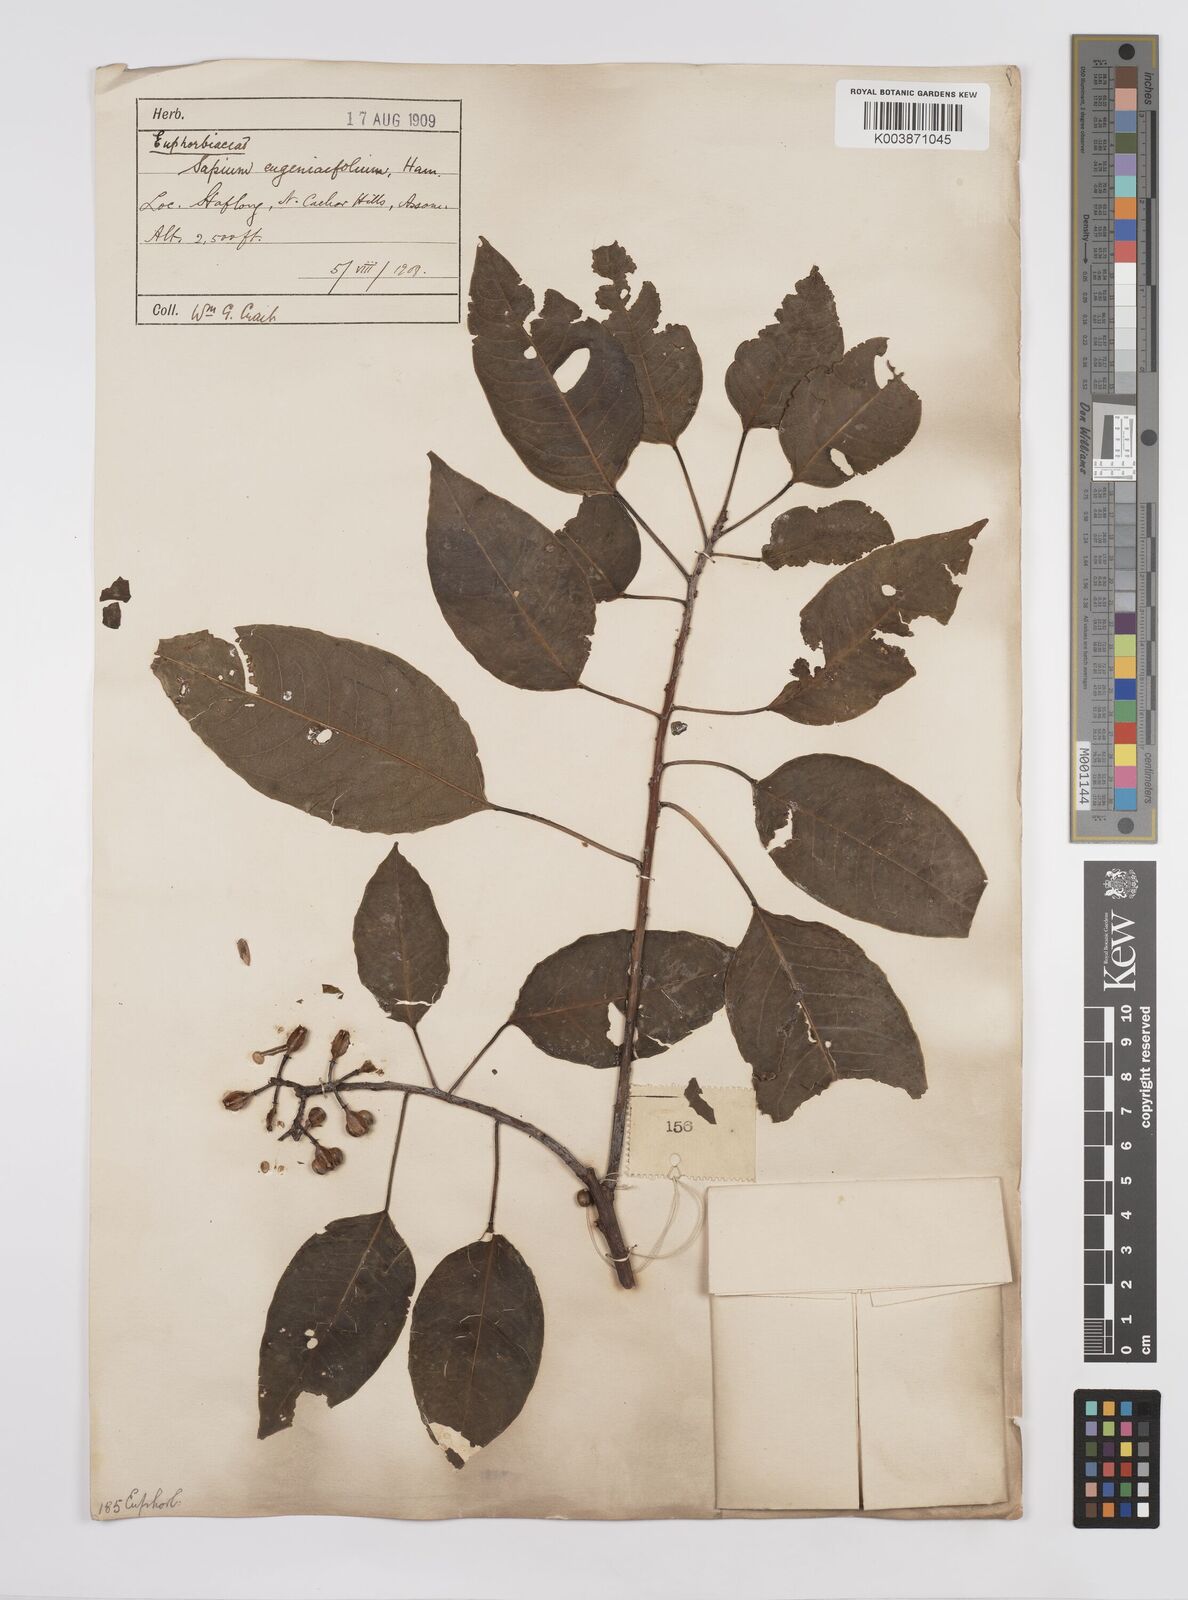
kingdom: Plantae
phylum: Tracheophyta
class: Magnoliopsida
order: Malpighiales
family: Euphorbiaceae
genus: Triadica
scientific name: Triadica cochinchinensis
